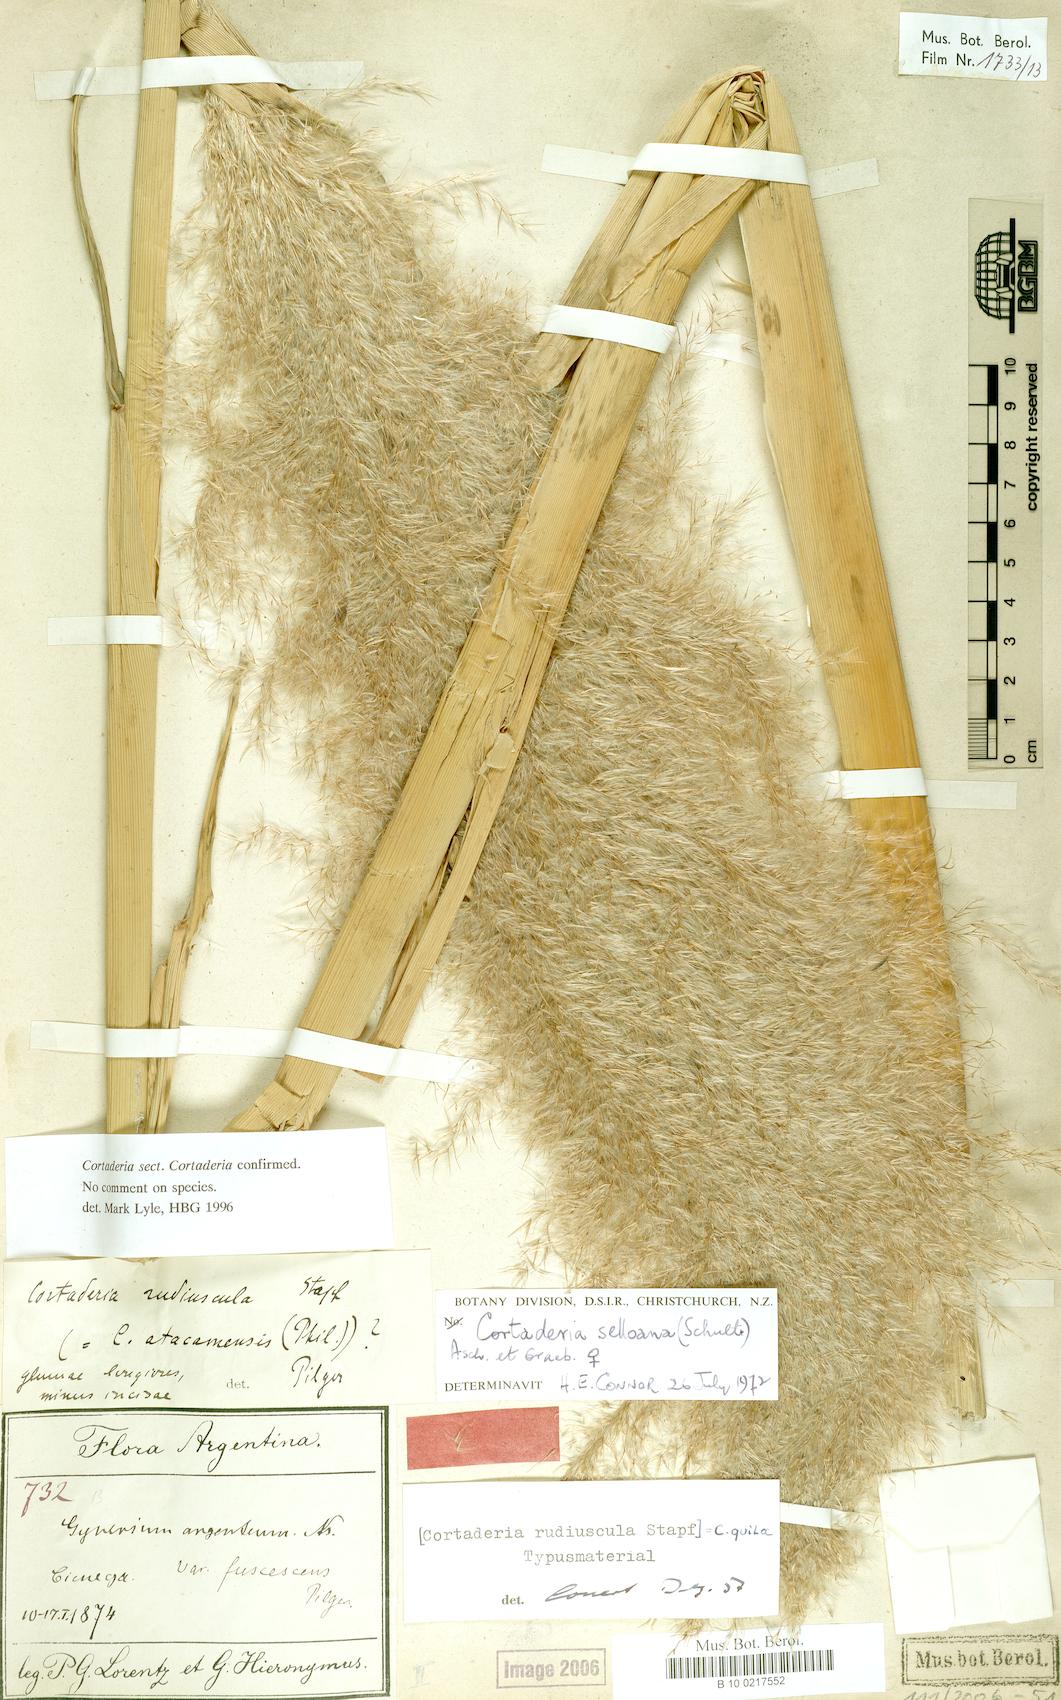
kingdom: Plantae
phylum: Tracheophyta
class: Liliopsida
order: Poales
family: Poaceae
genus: Cortaderia
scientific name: Cortaderia speciosa
